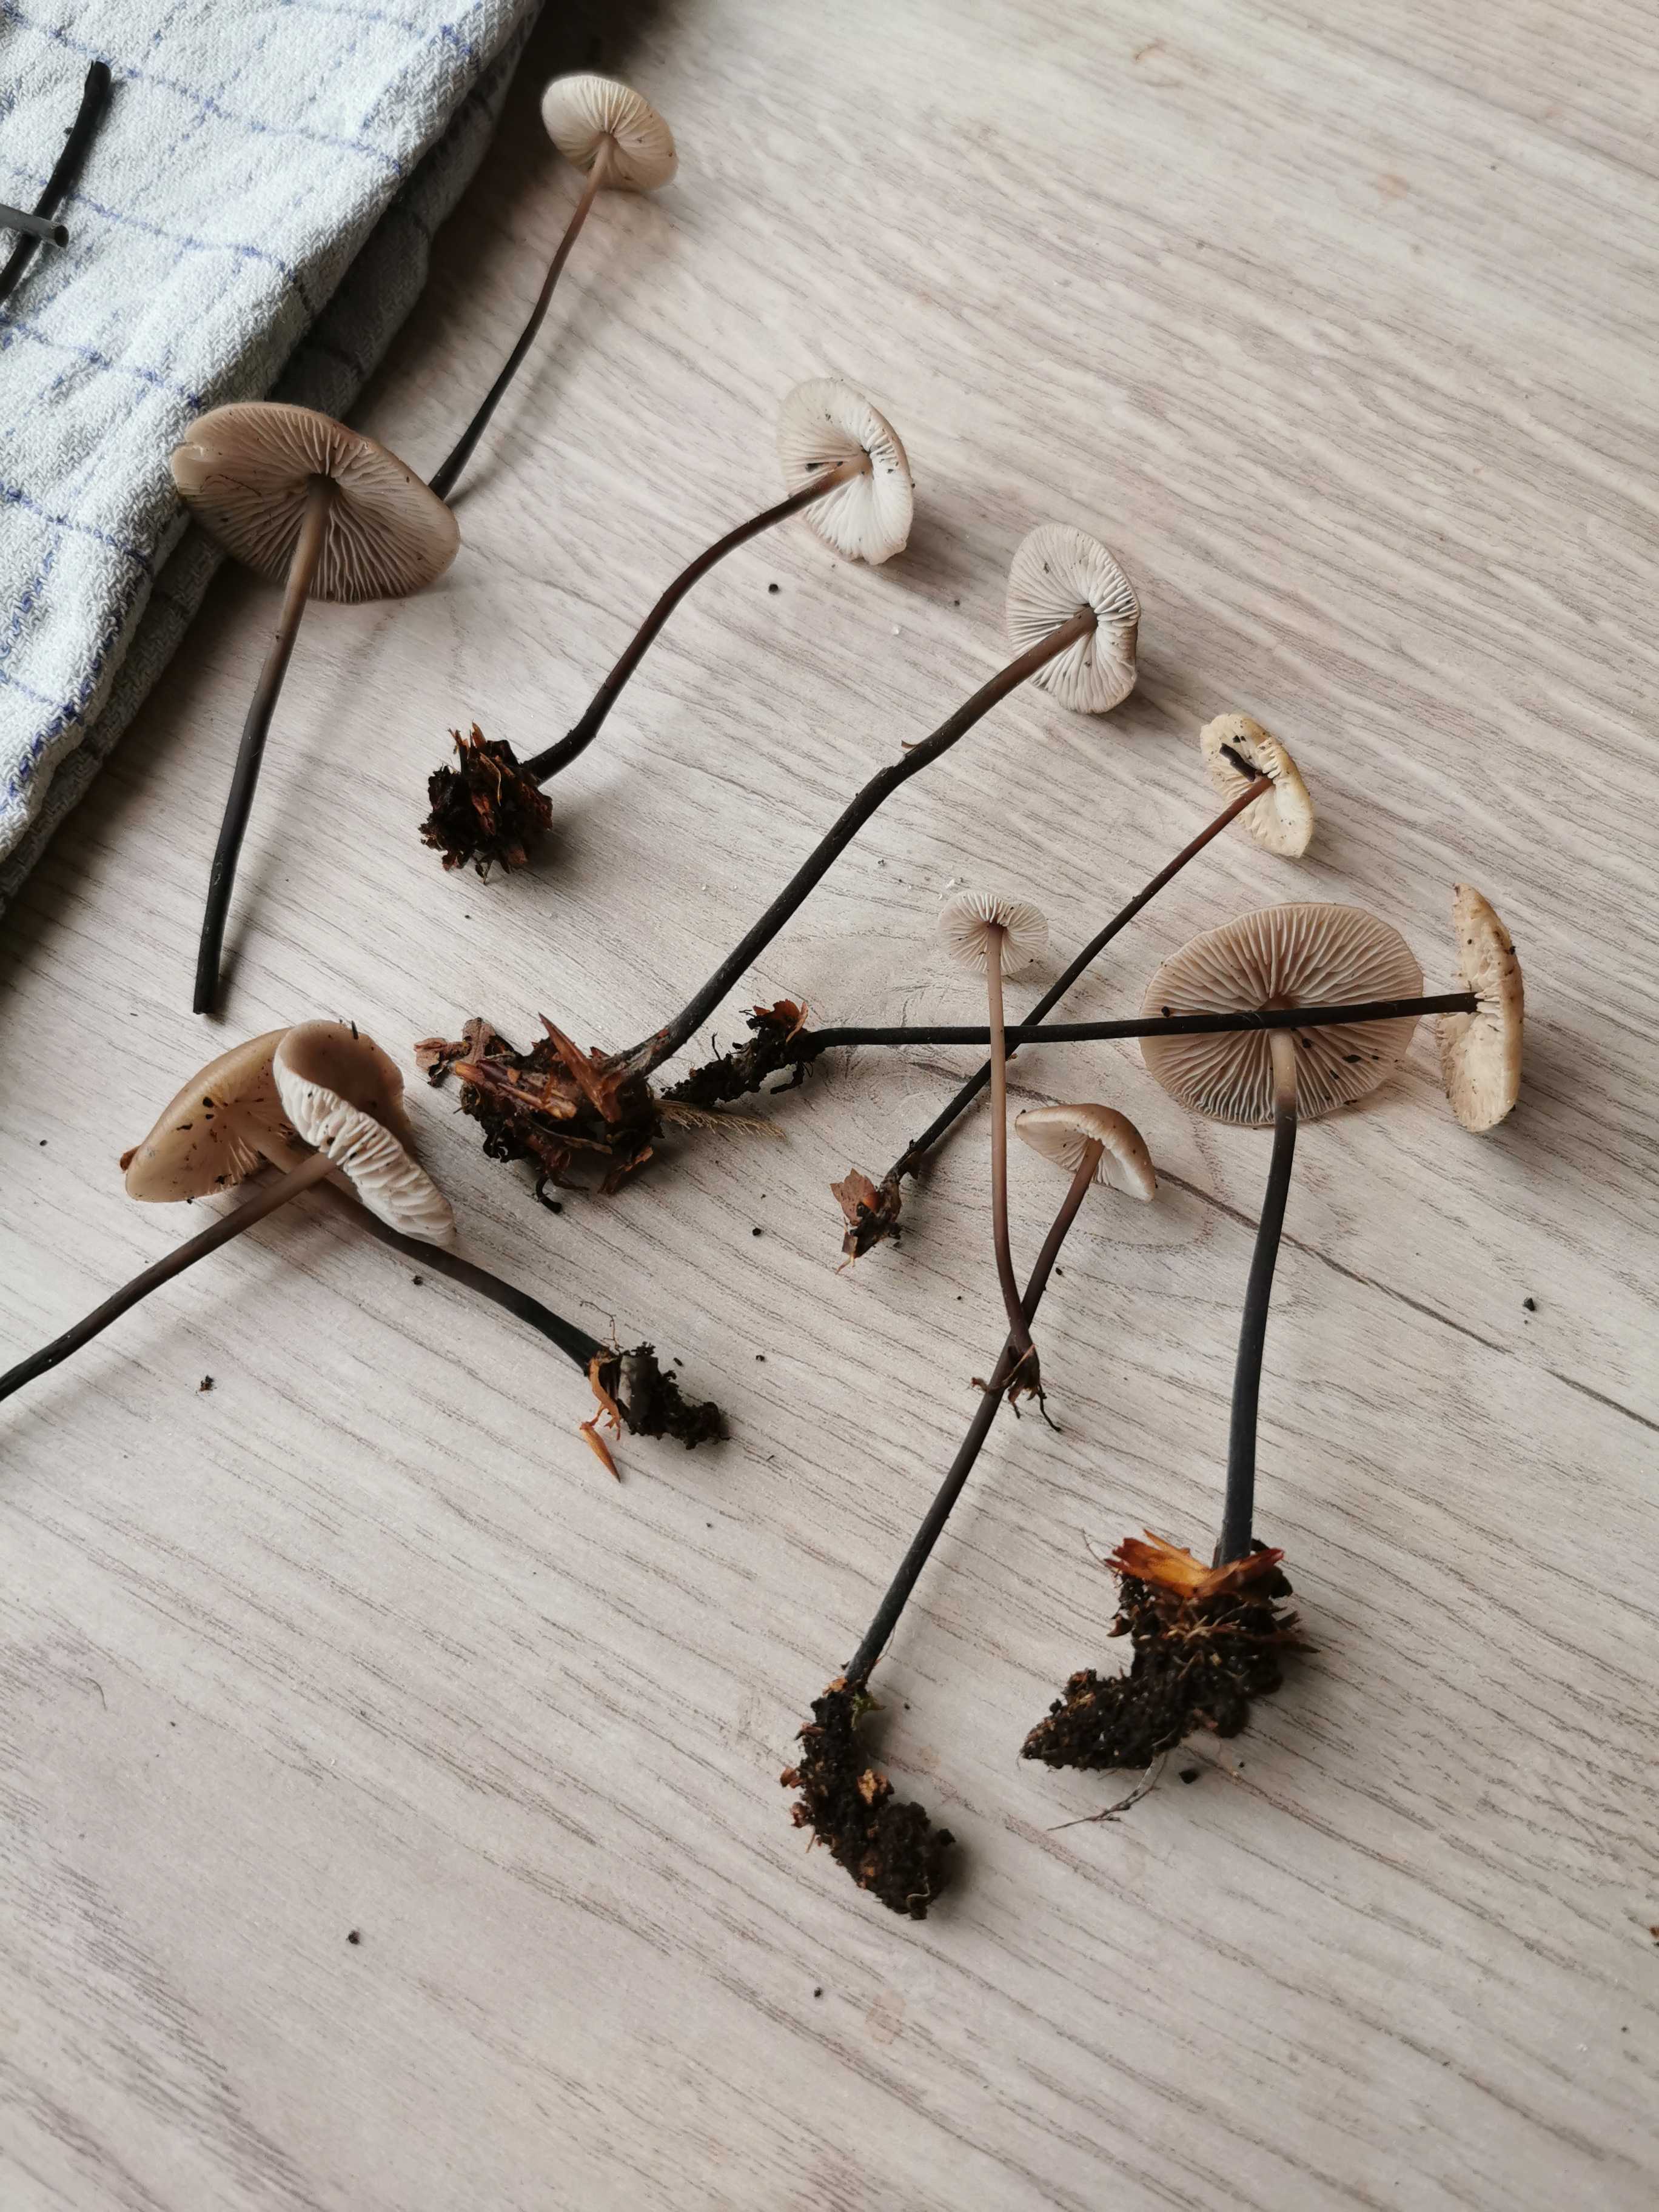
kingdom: Fungi
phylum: Basidiomycota
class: Agaricomycetes
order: Agaricales
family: Omphalotaceae
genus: Mycetinis
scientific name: Mycetinis alliaceus
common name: stor løghat
